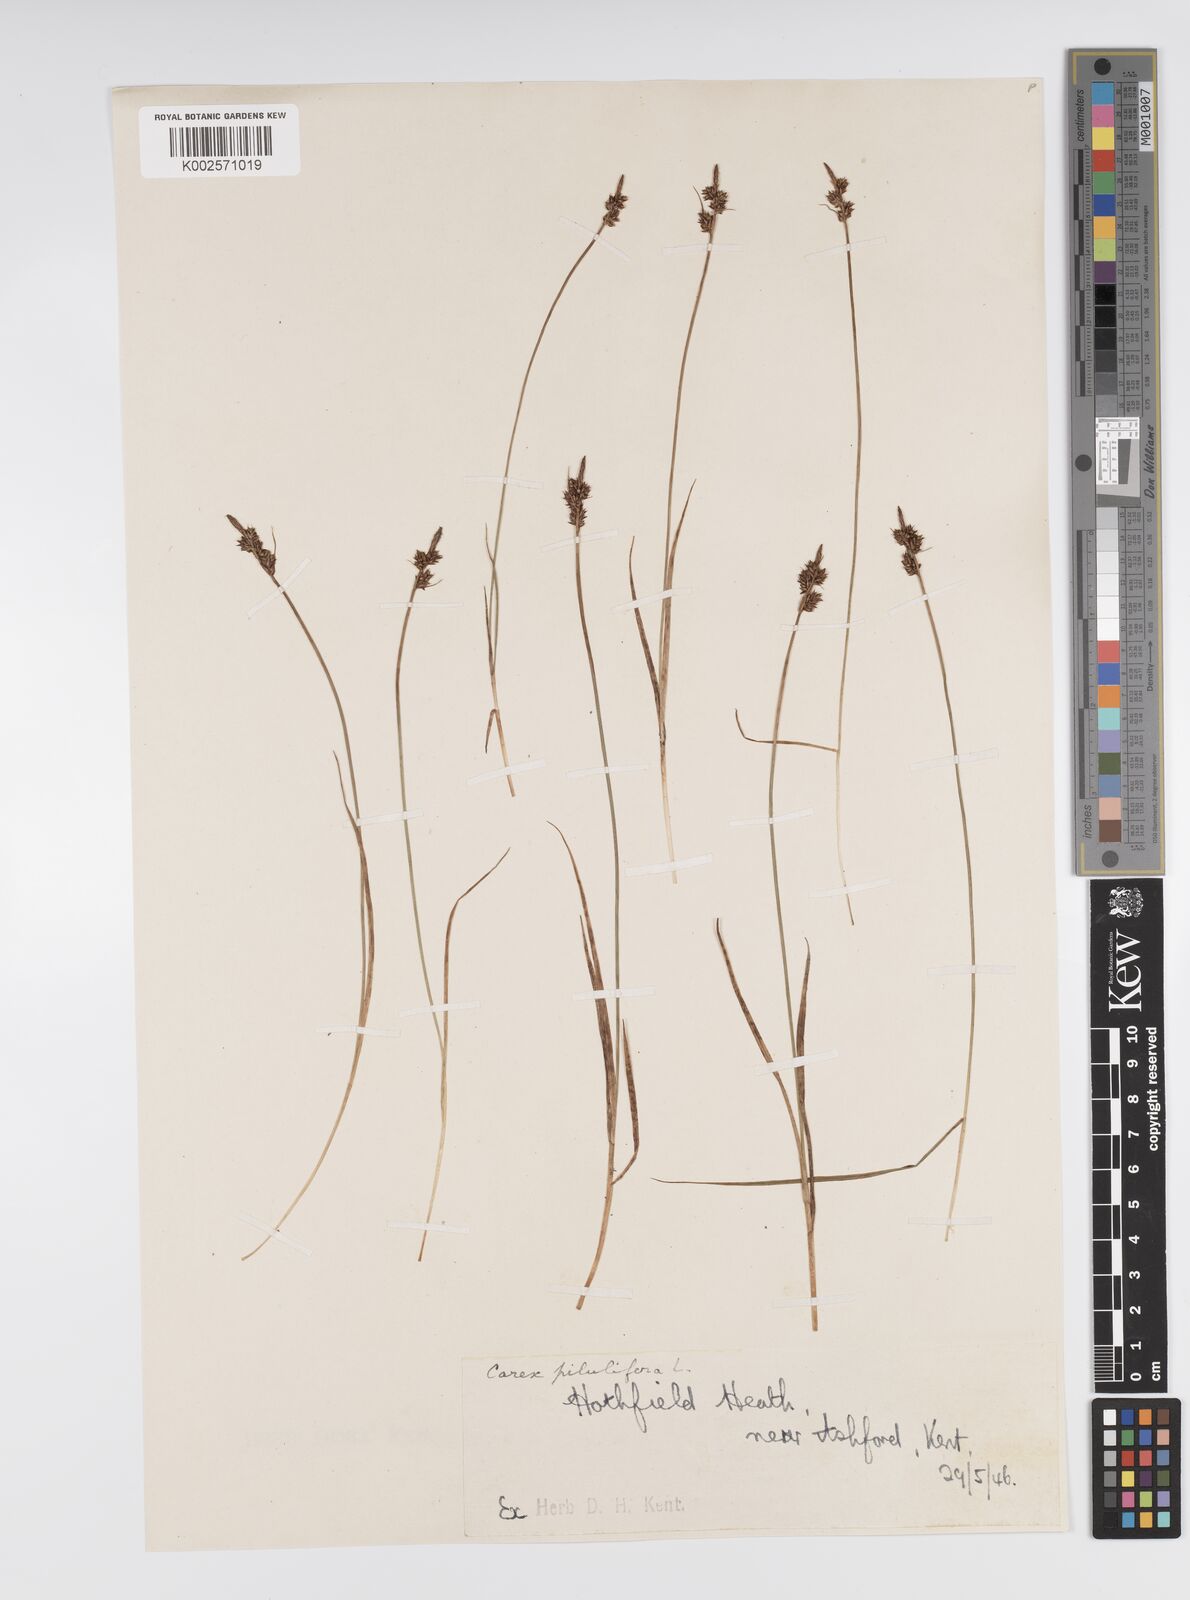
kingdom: Plantae
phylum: Tracheophyta
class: Liliopsida
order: Poales
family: Cyperaceae
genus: Carex
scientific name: Carex praecox
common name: Early sedge
